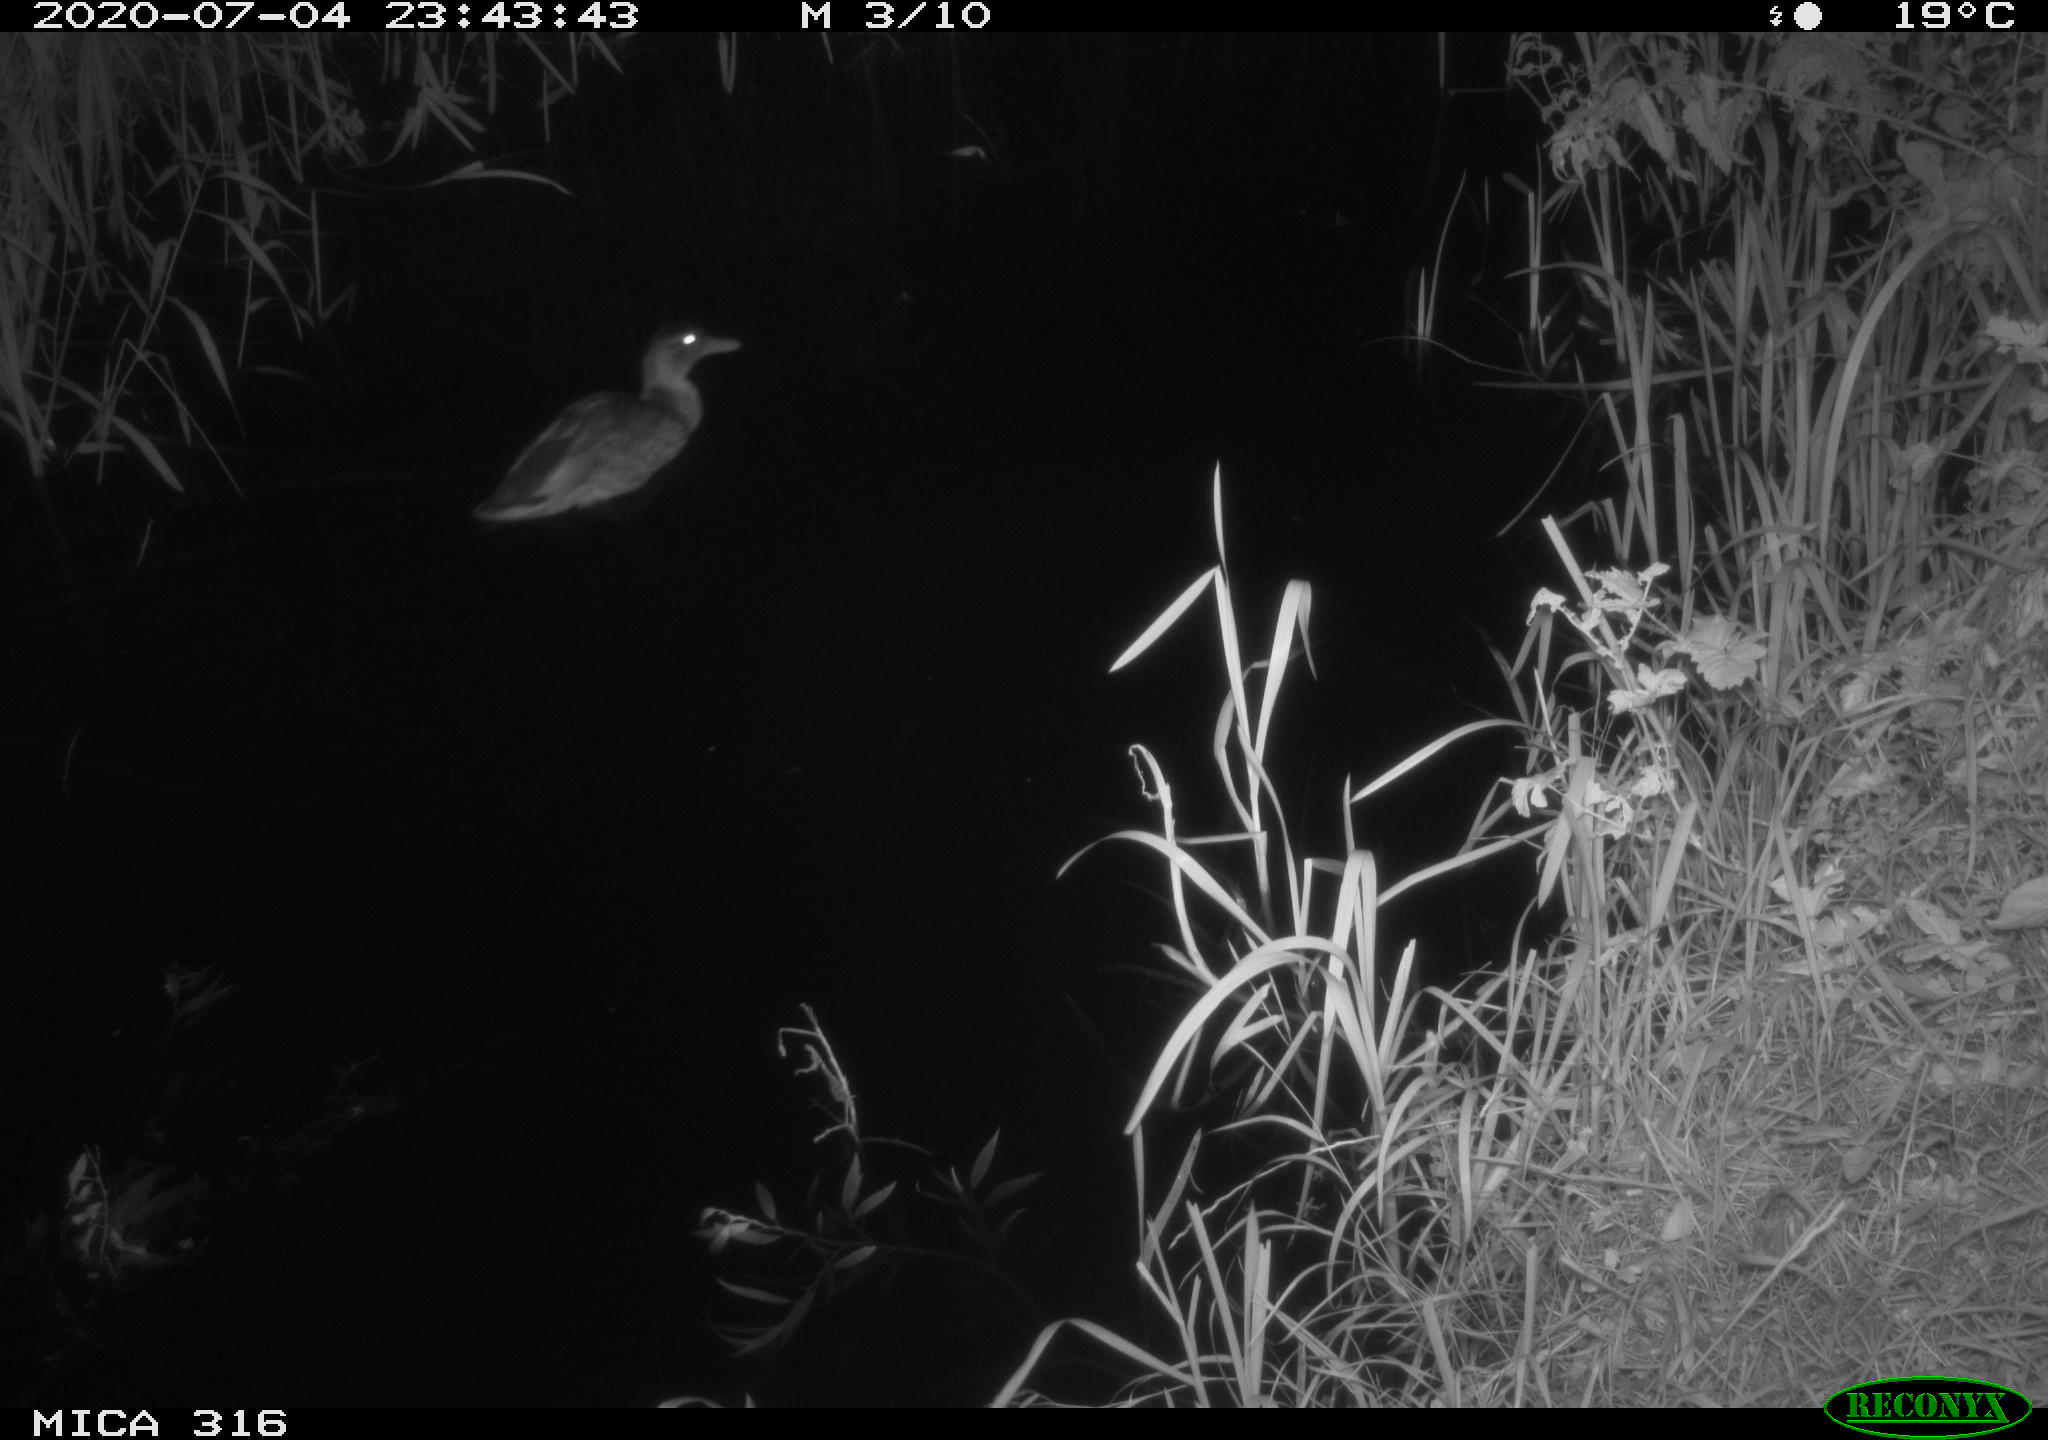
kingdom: Animalia
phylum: Chordata
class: Aves
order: Anseriformes
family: Anatidae
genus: Anas
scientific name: Anas platyrhynchos
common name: Mallard
